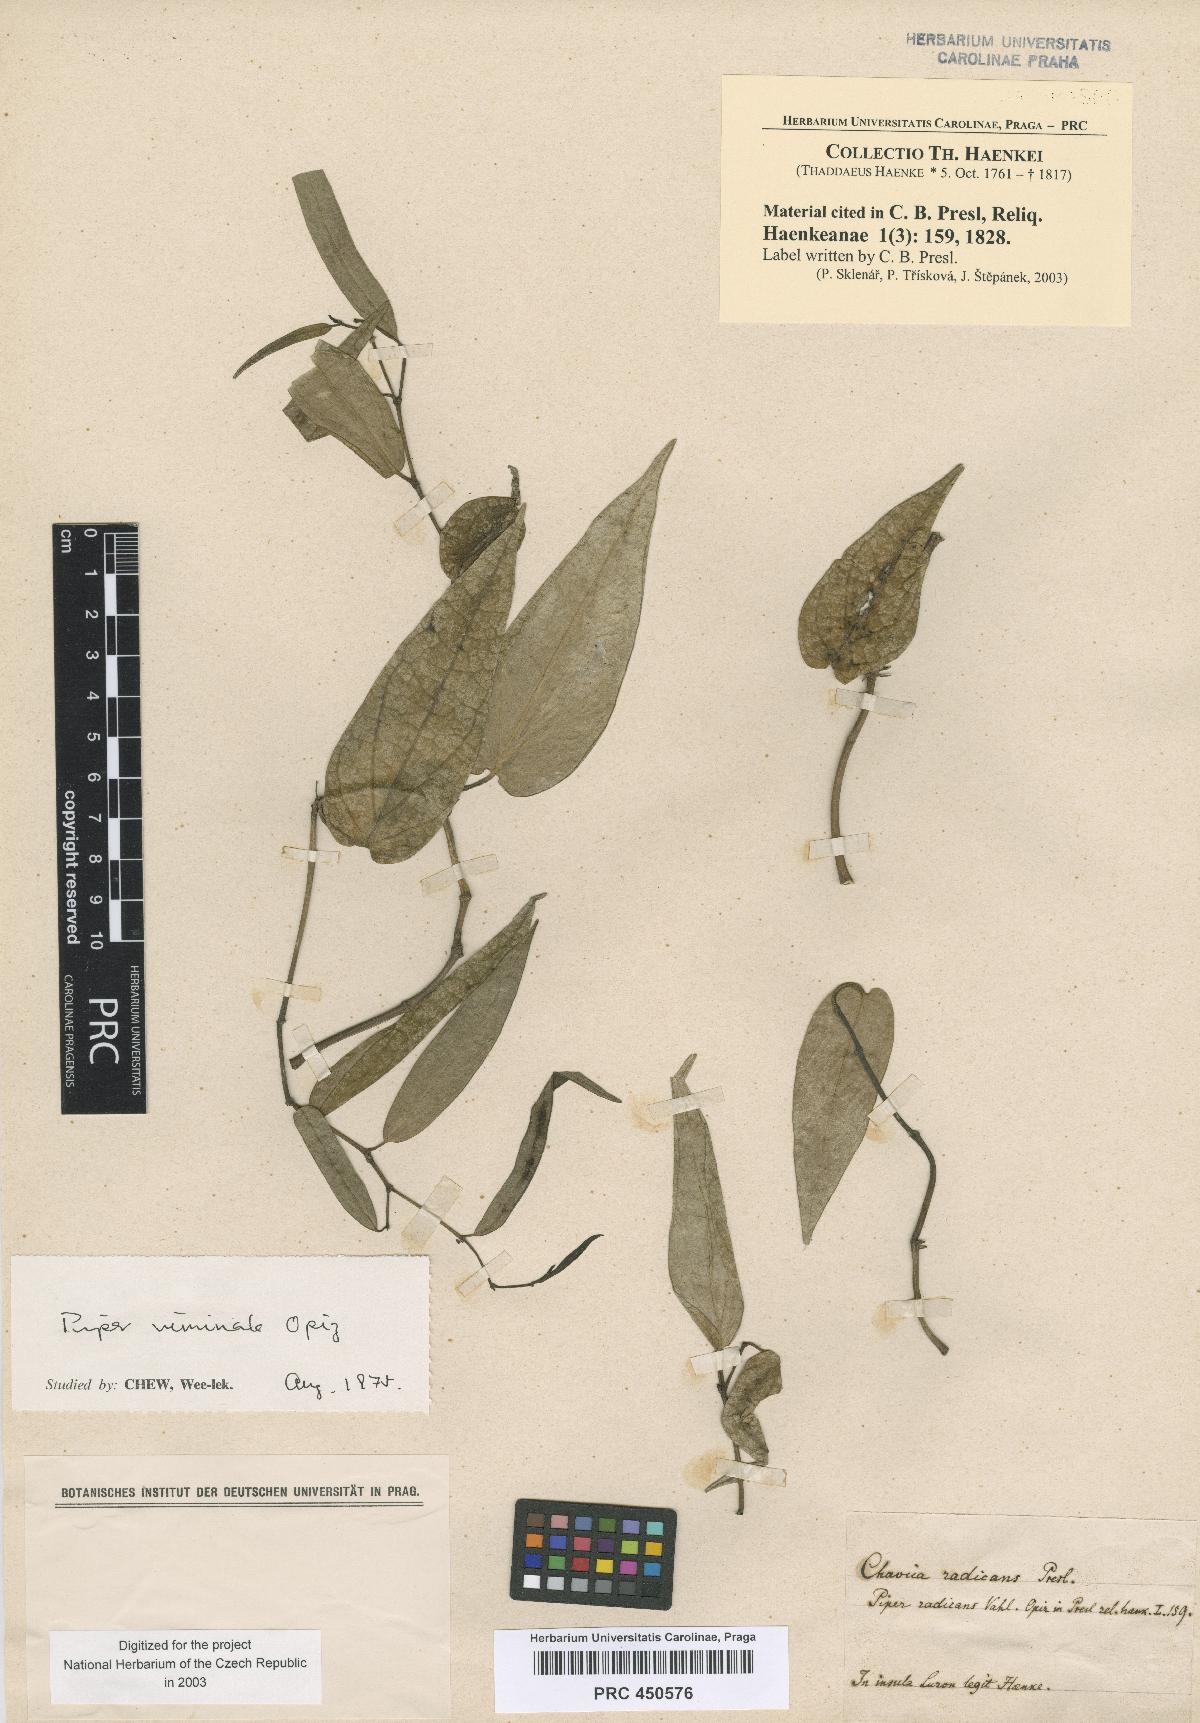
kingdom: Plantae
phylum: Tracheophyta
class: Magnoliopsida
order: Piperales
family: Piperaceae
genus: Piper
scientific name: Piper lanatum
